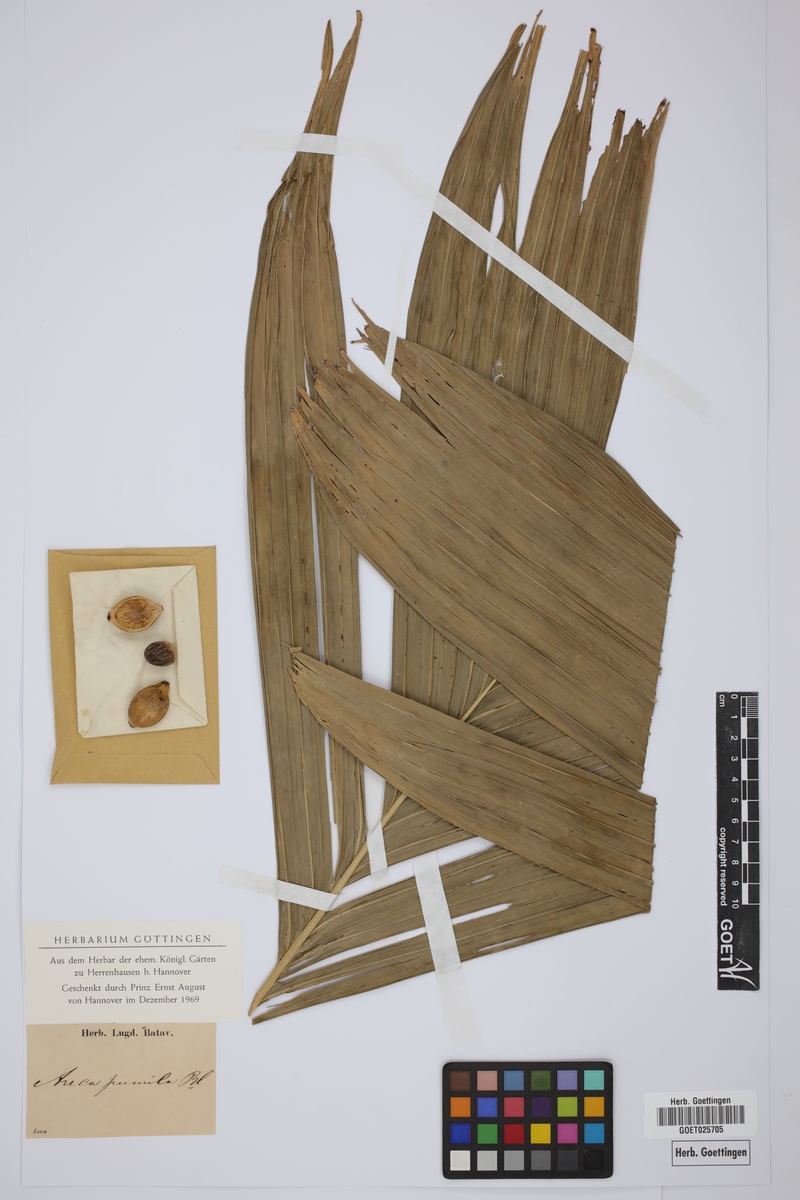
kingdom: Plantae
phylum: Tracheophyta
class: Liliopsida
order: Arecales
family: Arecaceae
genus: Nenga
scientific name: Nenga pumila
